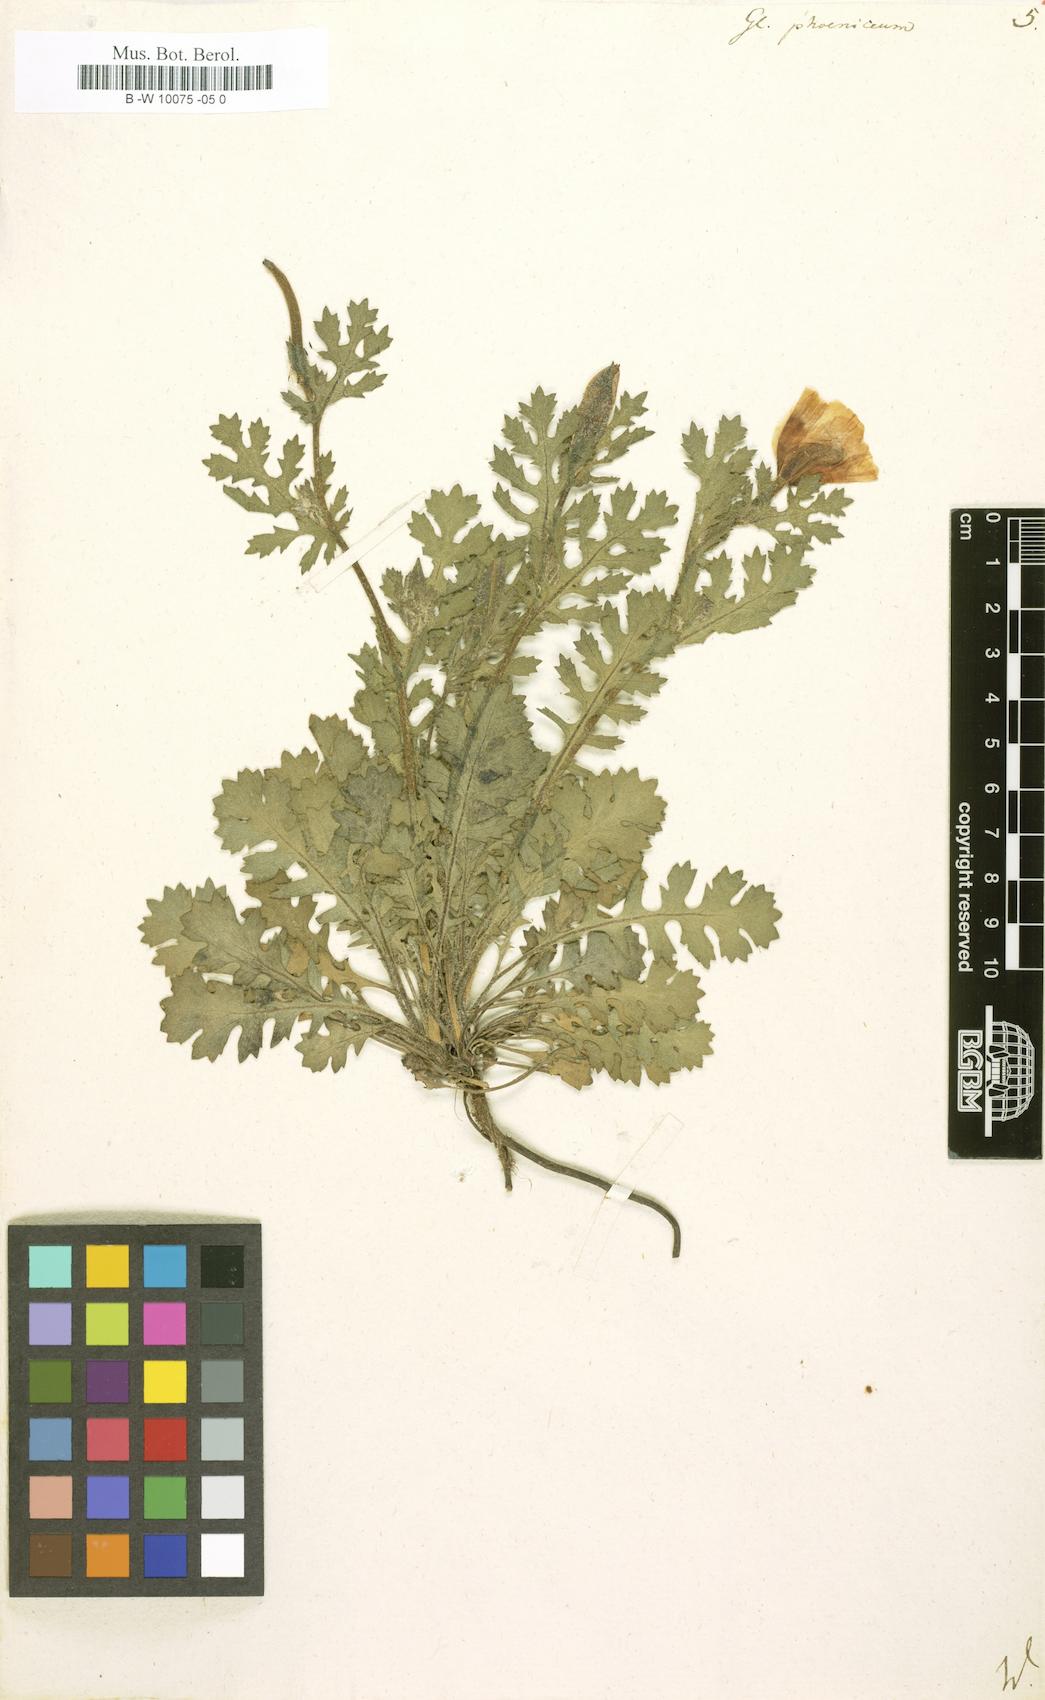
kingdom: Plantae
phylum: Tracheophyta
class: Magnoliopsida
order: Ranunculales
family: Papaveraceae
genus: Glaucium
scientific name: Glaucium
